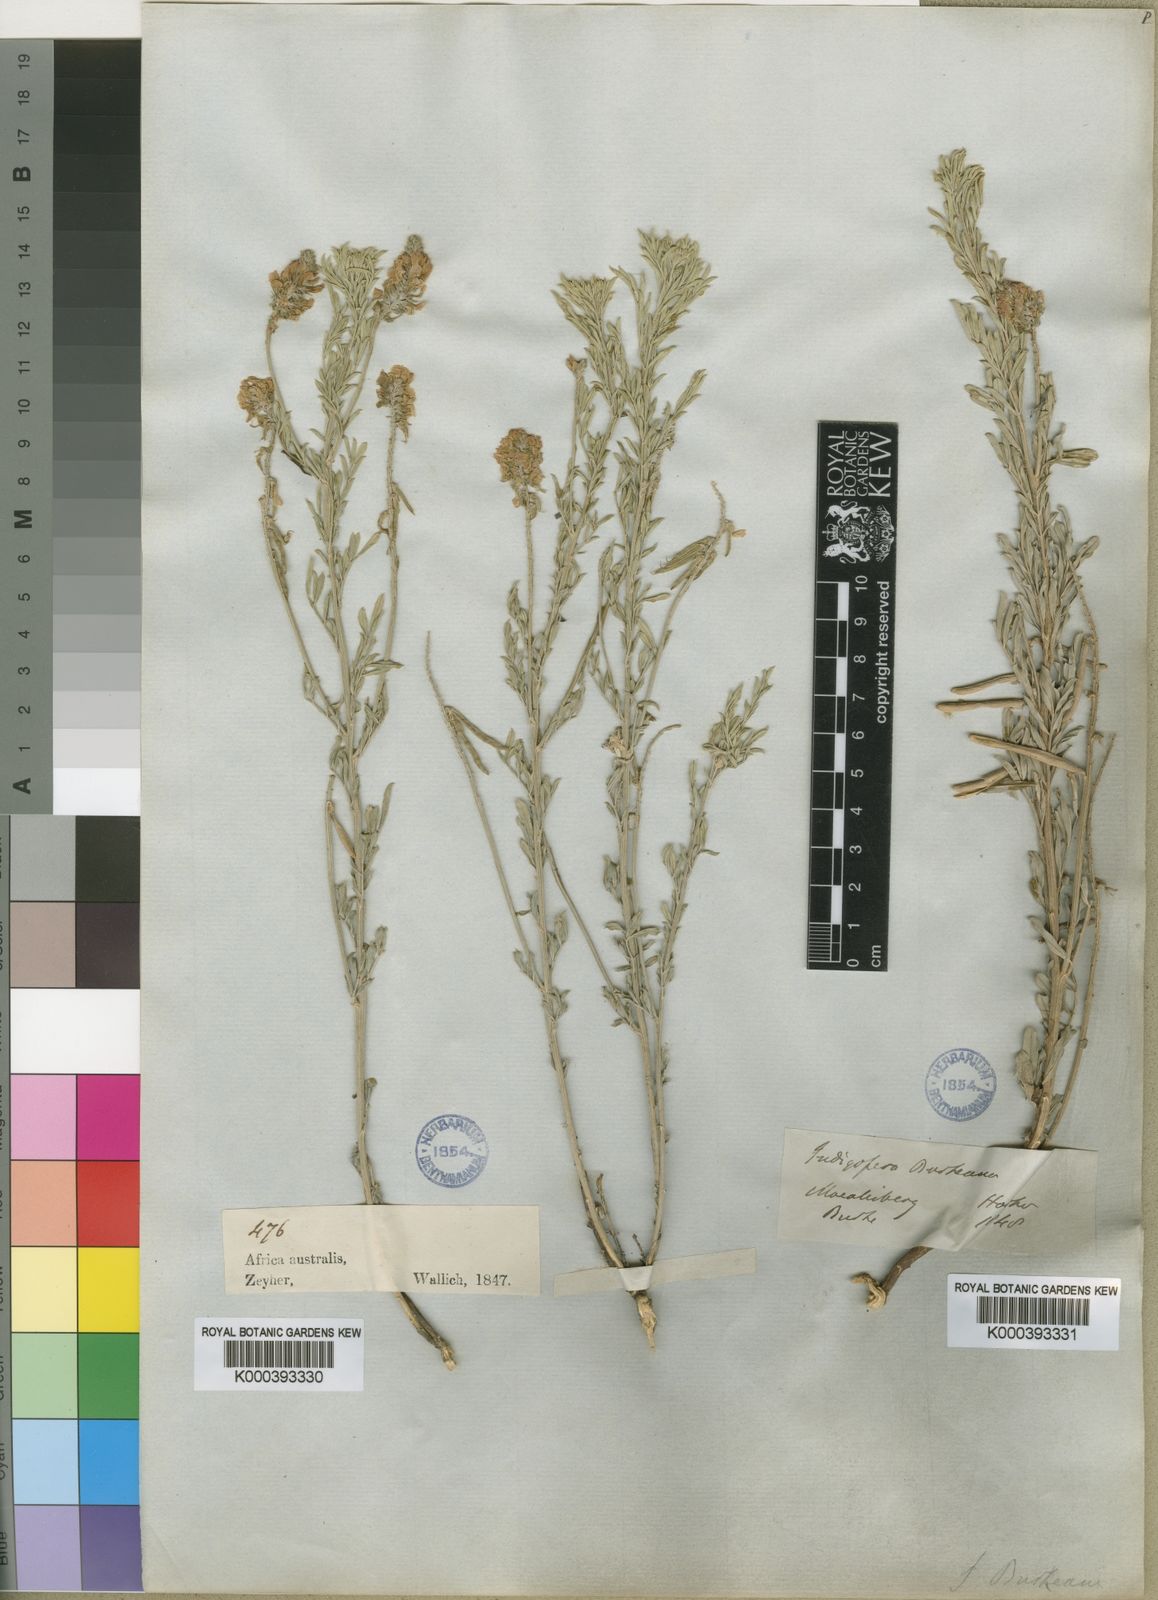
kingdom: Plantae
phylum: Tracheophyta
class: Magnoliopsida
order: Fabales
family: Fabaceae
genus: Indigastrum
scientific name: Indigastrum burkeanum
